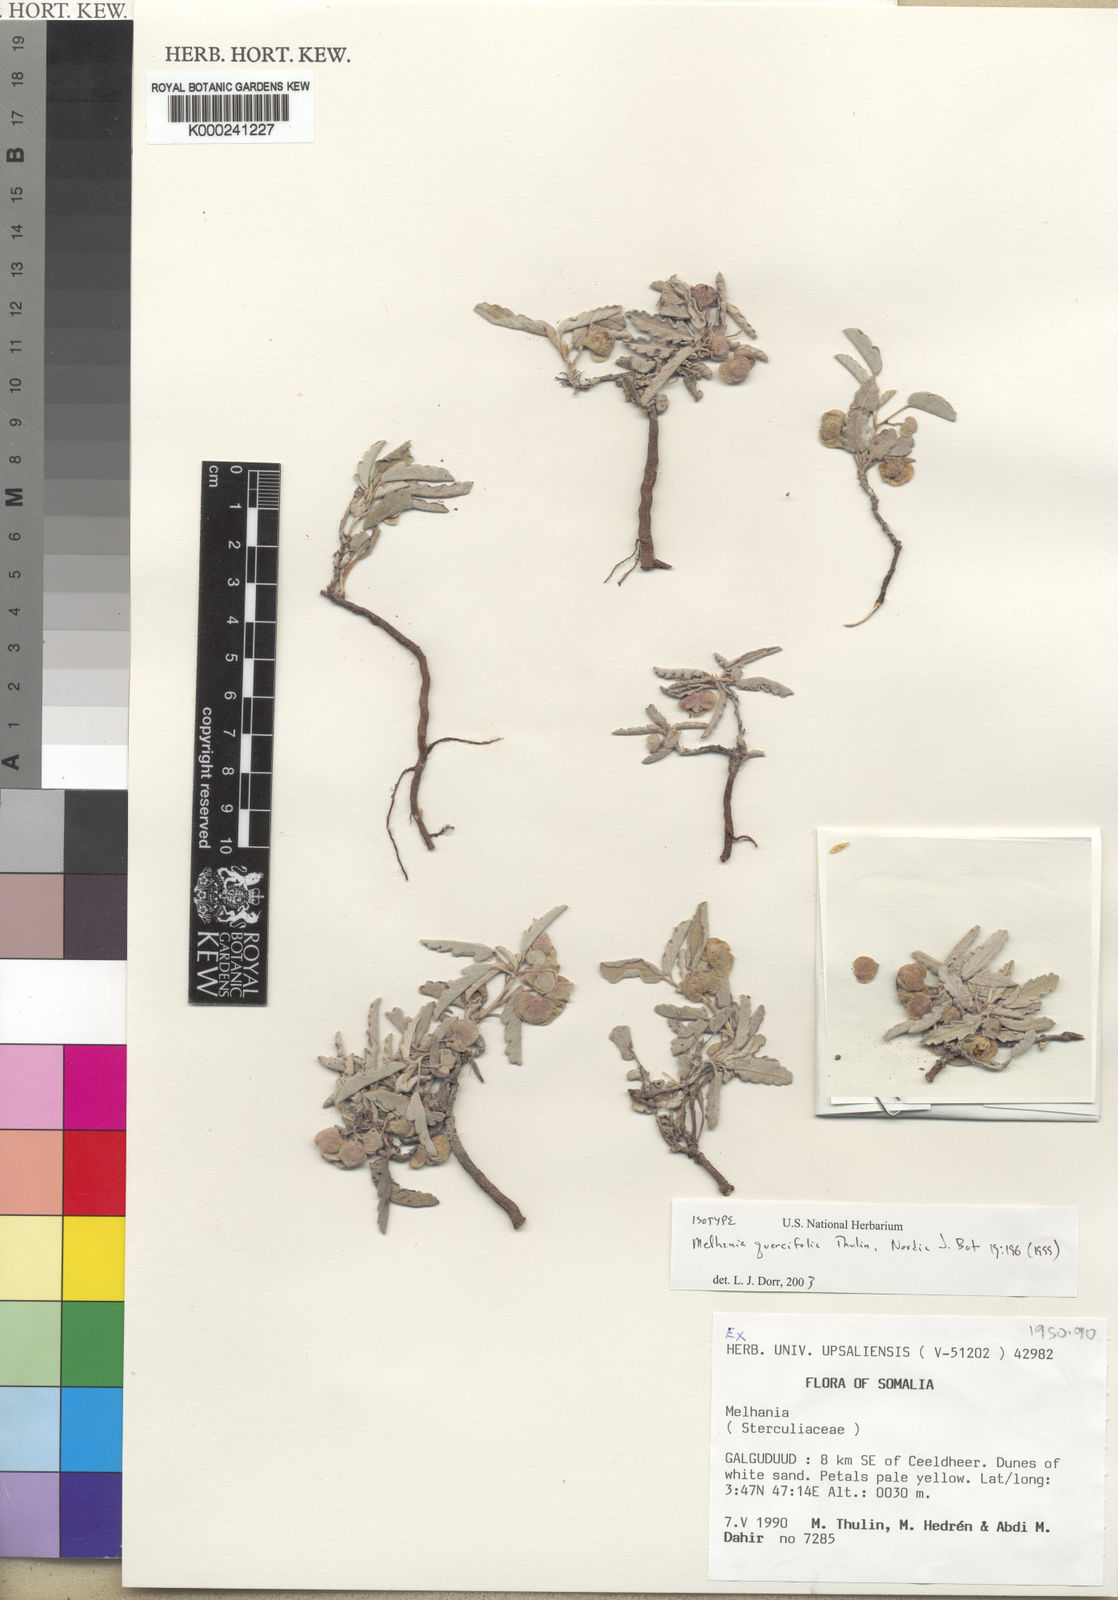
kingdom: Plantae
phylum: Tracheophyta
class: Magnoliopsida
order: Malvales
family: Malvaceae
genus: Melhania
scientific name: Melhania quercifolia
